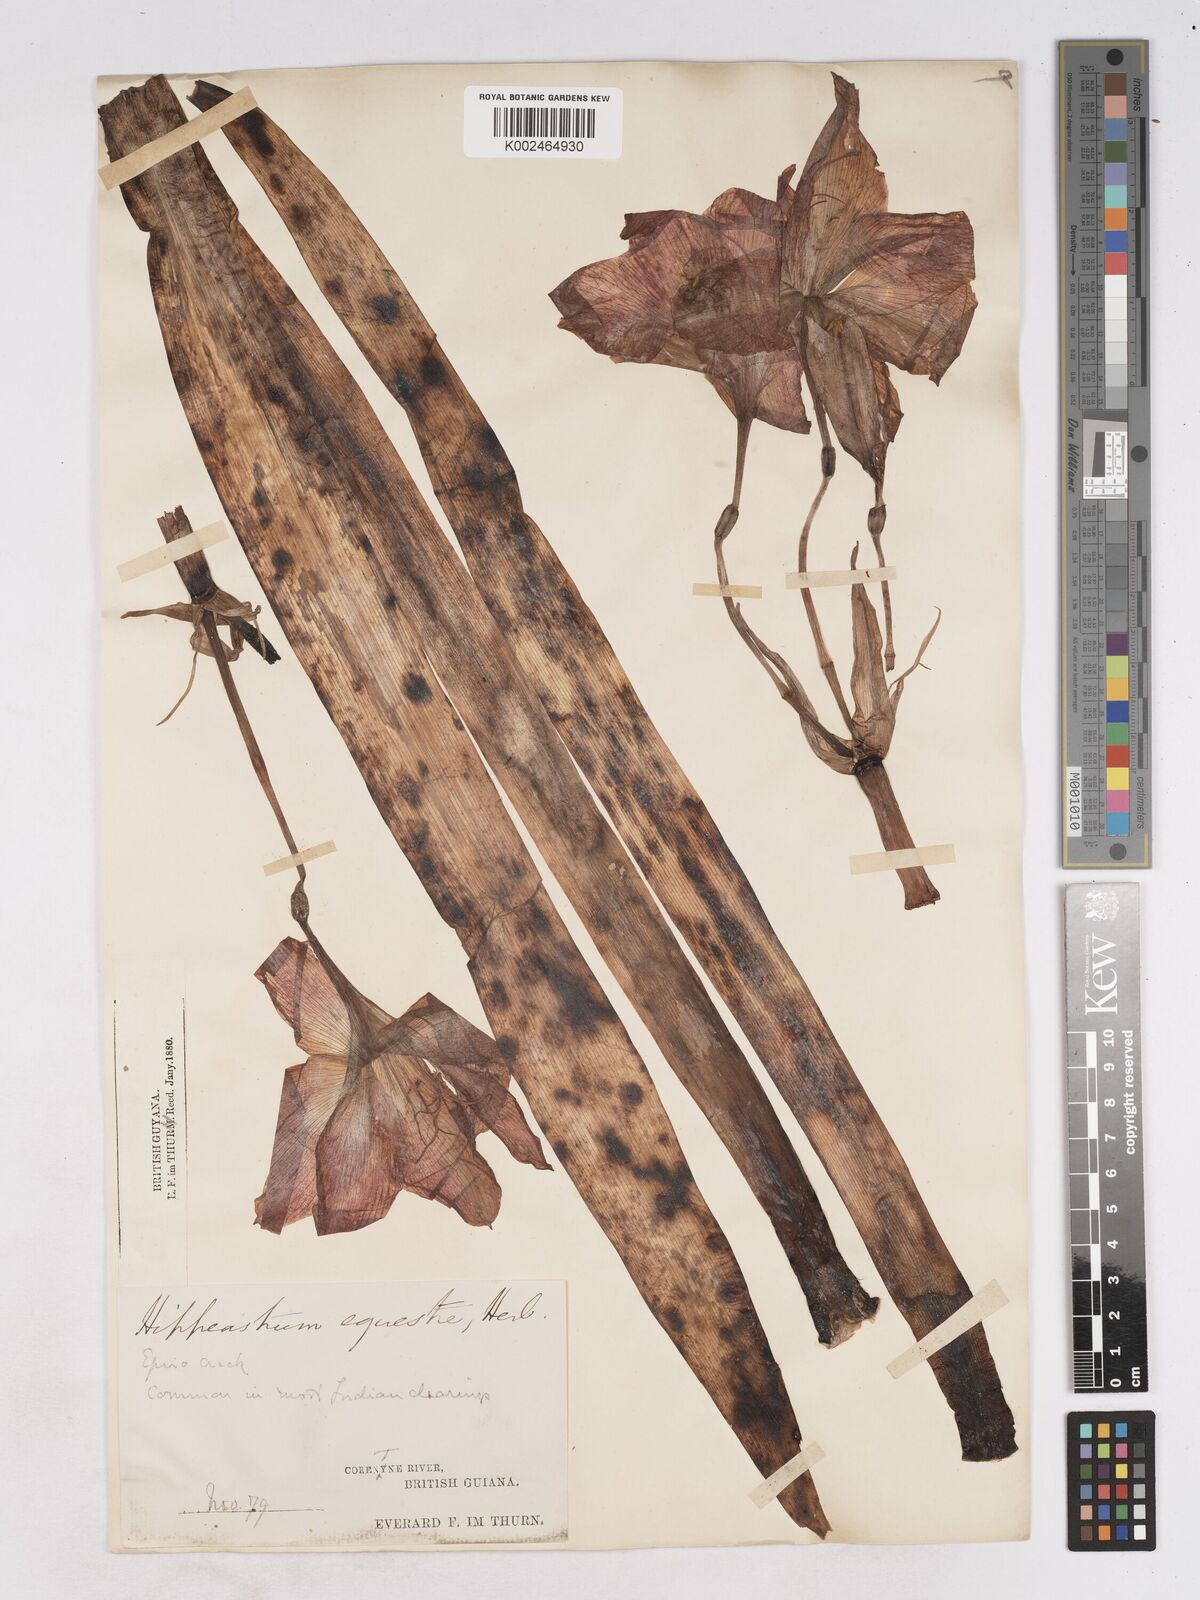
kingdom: Plantae
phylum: Tracheophyta
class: Liliopsida
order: Asparagales
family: Amaryllidaceae
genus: Hippeastrum
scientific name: Hippeastrum puniceum
